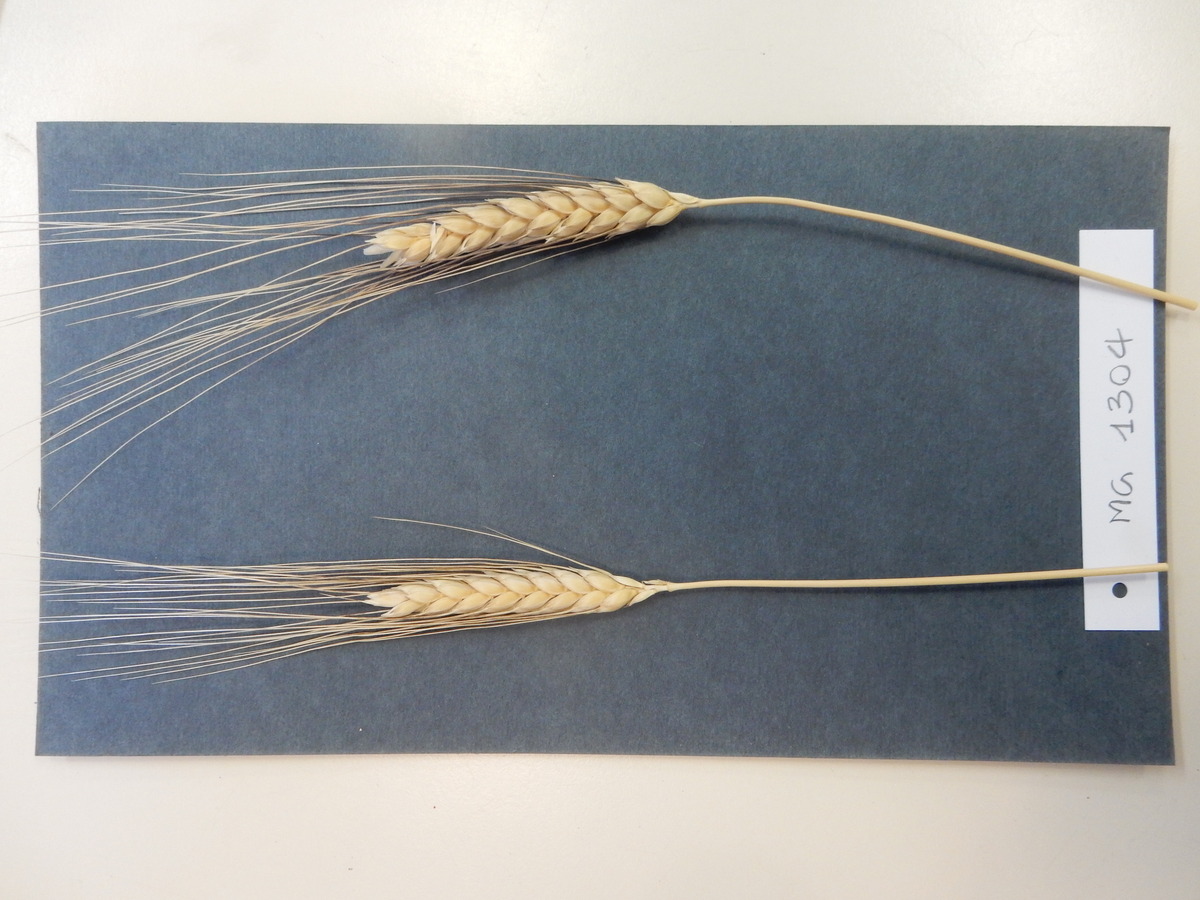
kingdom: Plantae
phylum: Tracheophyta
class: Liliopsida
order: Poales
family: Poaceae
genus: Triticum
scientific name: Triticum turgidum
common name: Wheat
